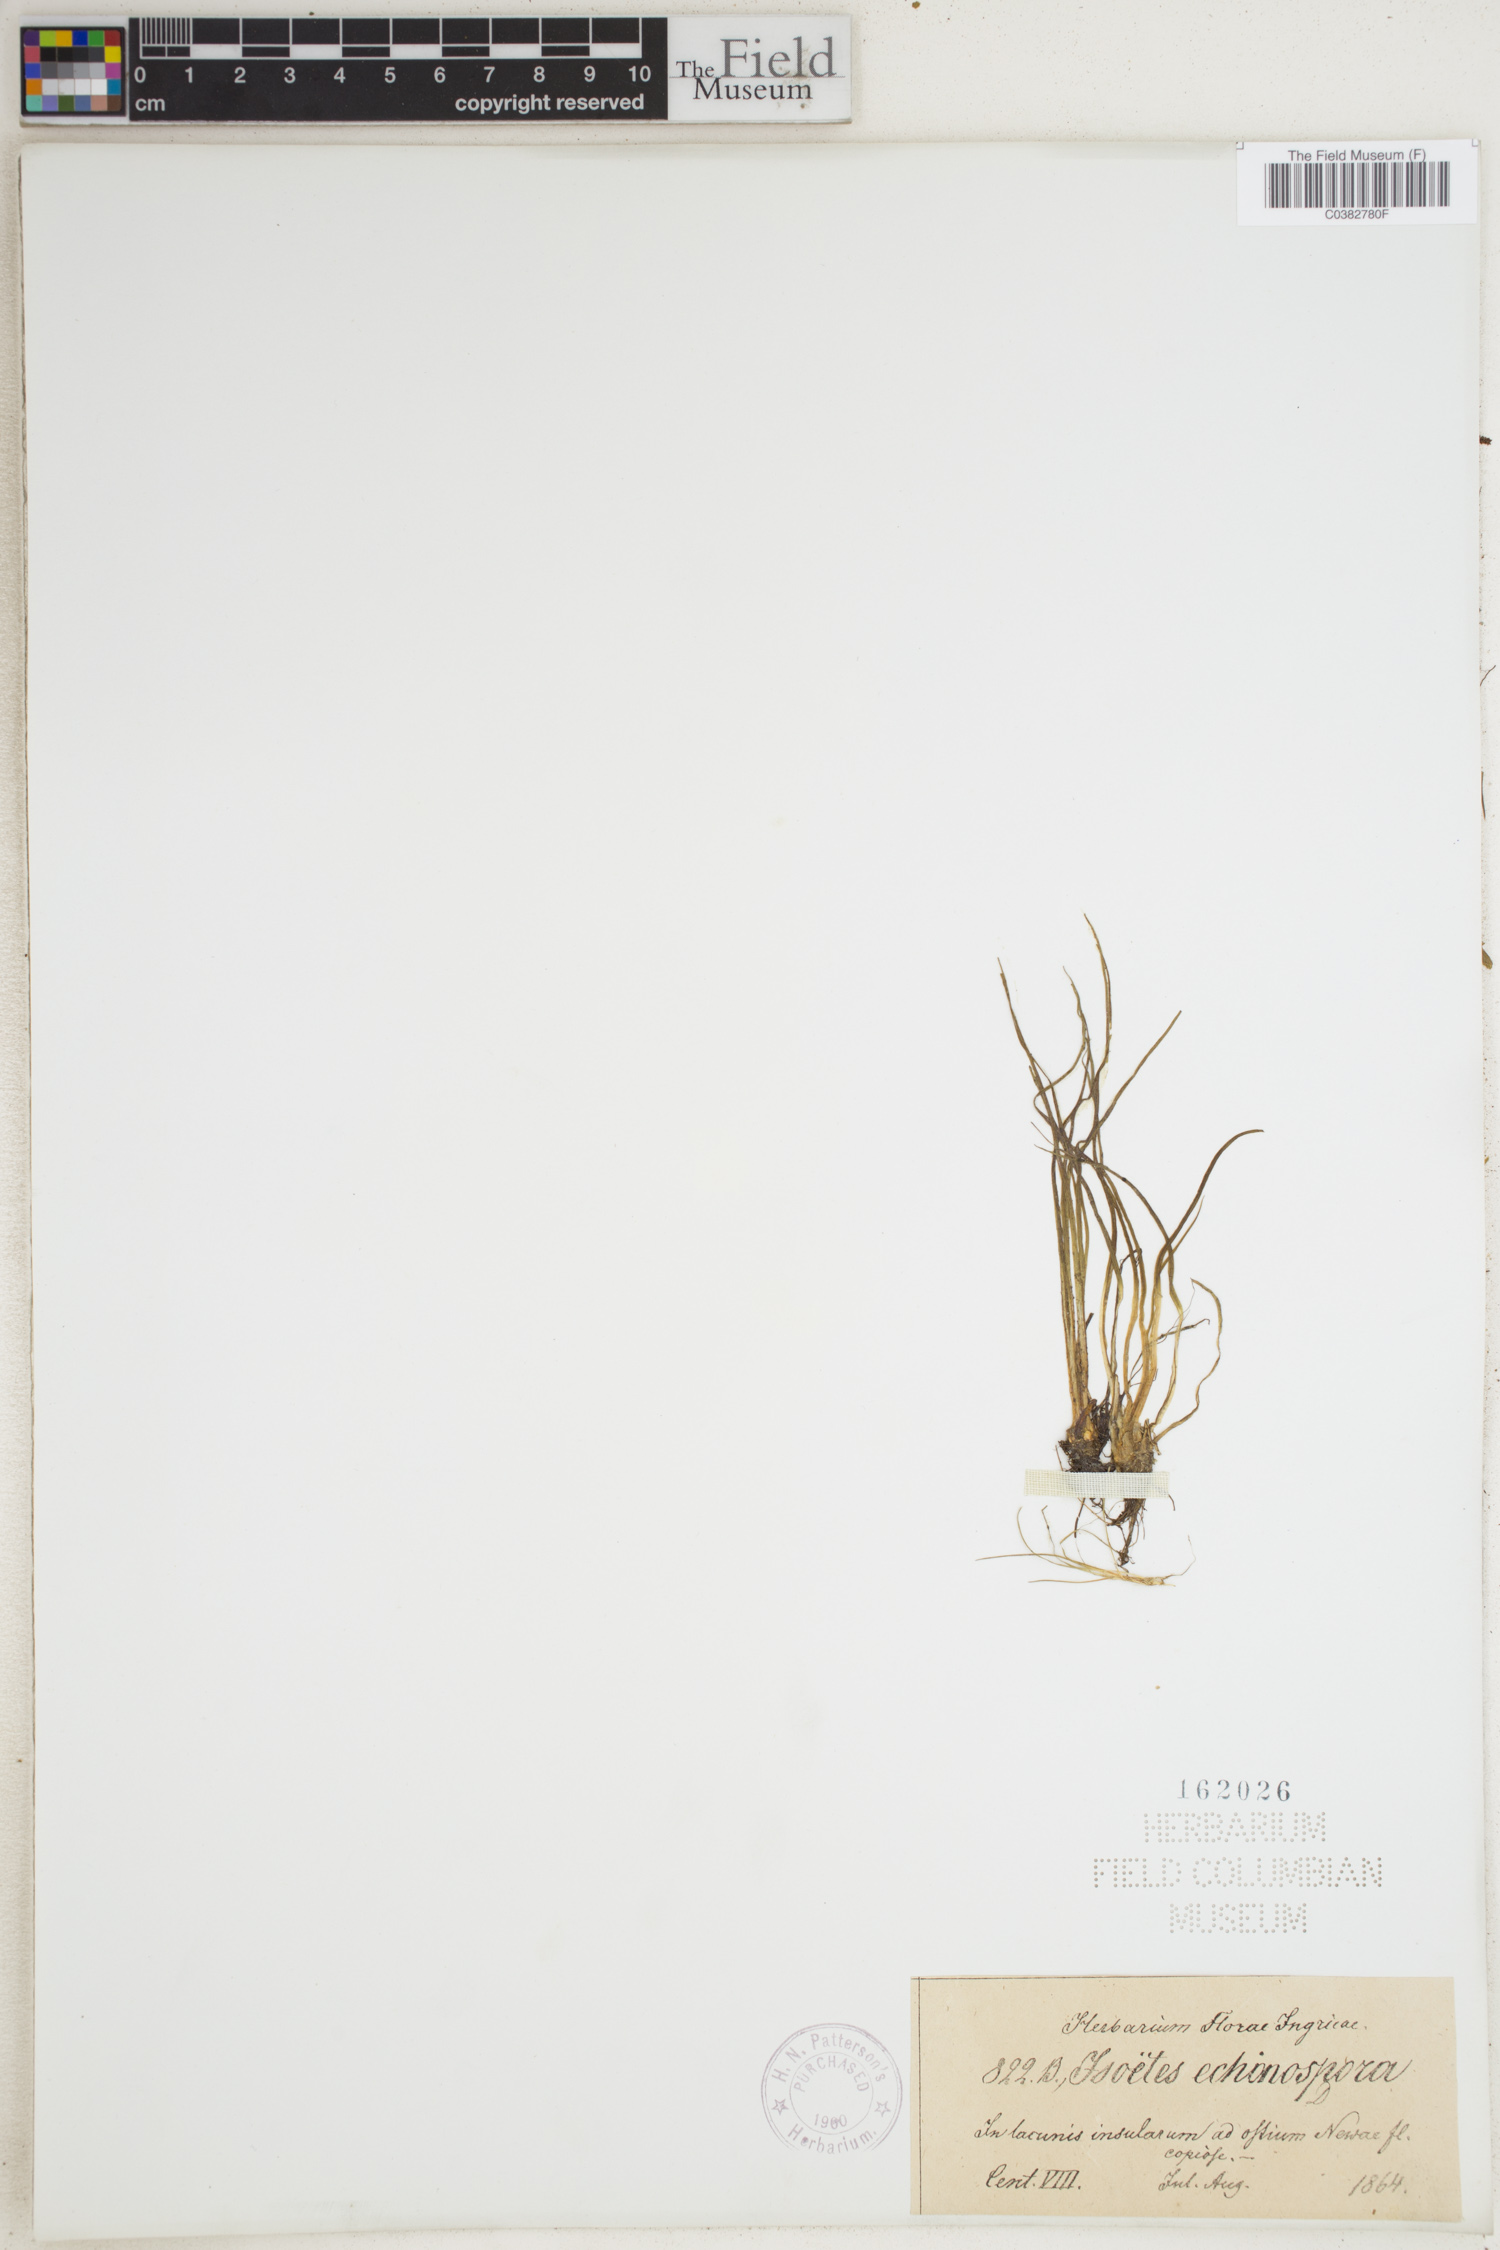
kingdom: Plantae
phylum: Tracheophyta
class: Lycopodiopsida
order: Isoetales
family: Isoetaceae
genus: Isoetes
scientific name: Isoetes echinospora
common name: Spring quillwort
